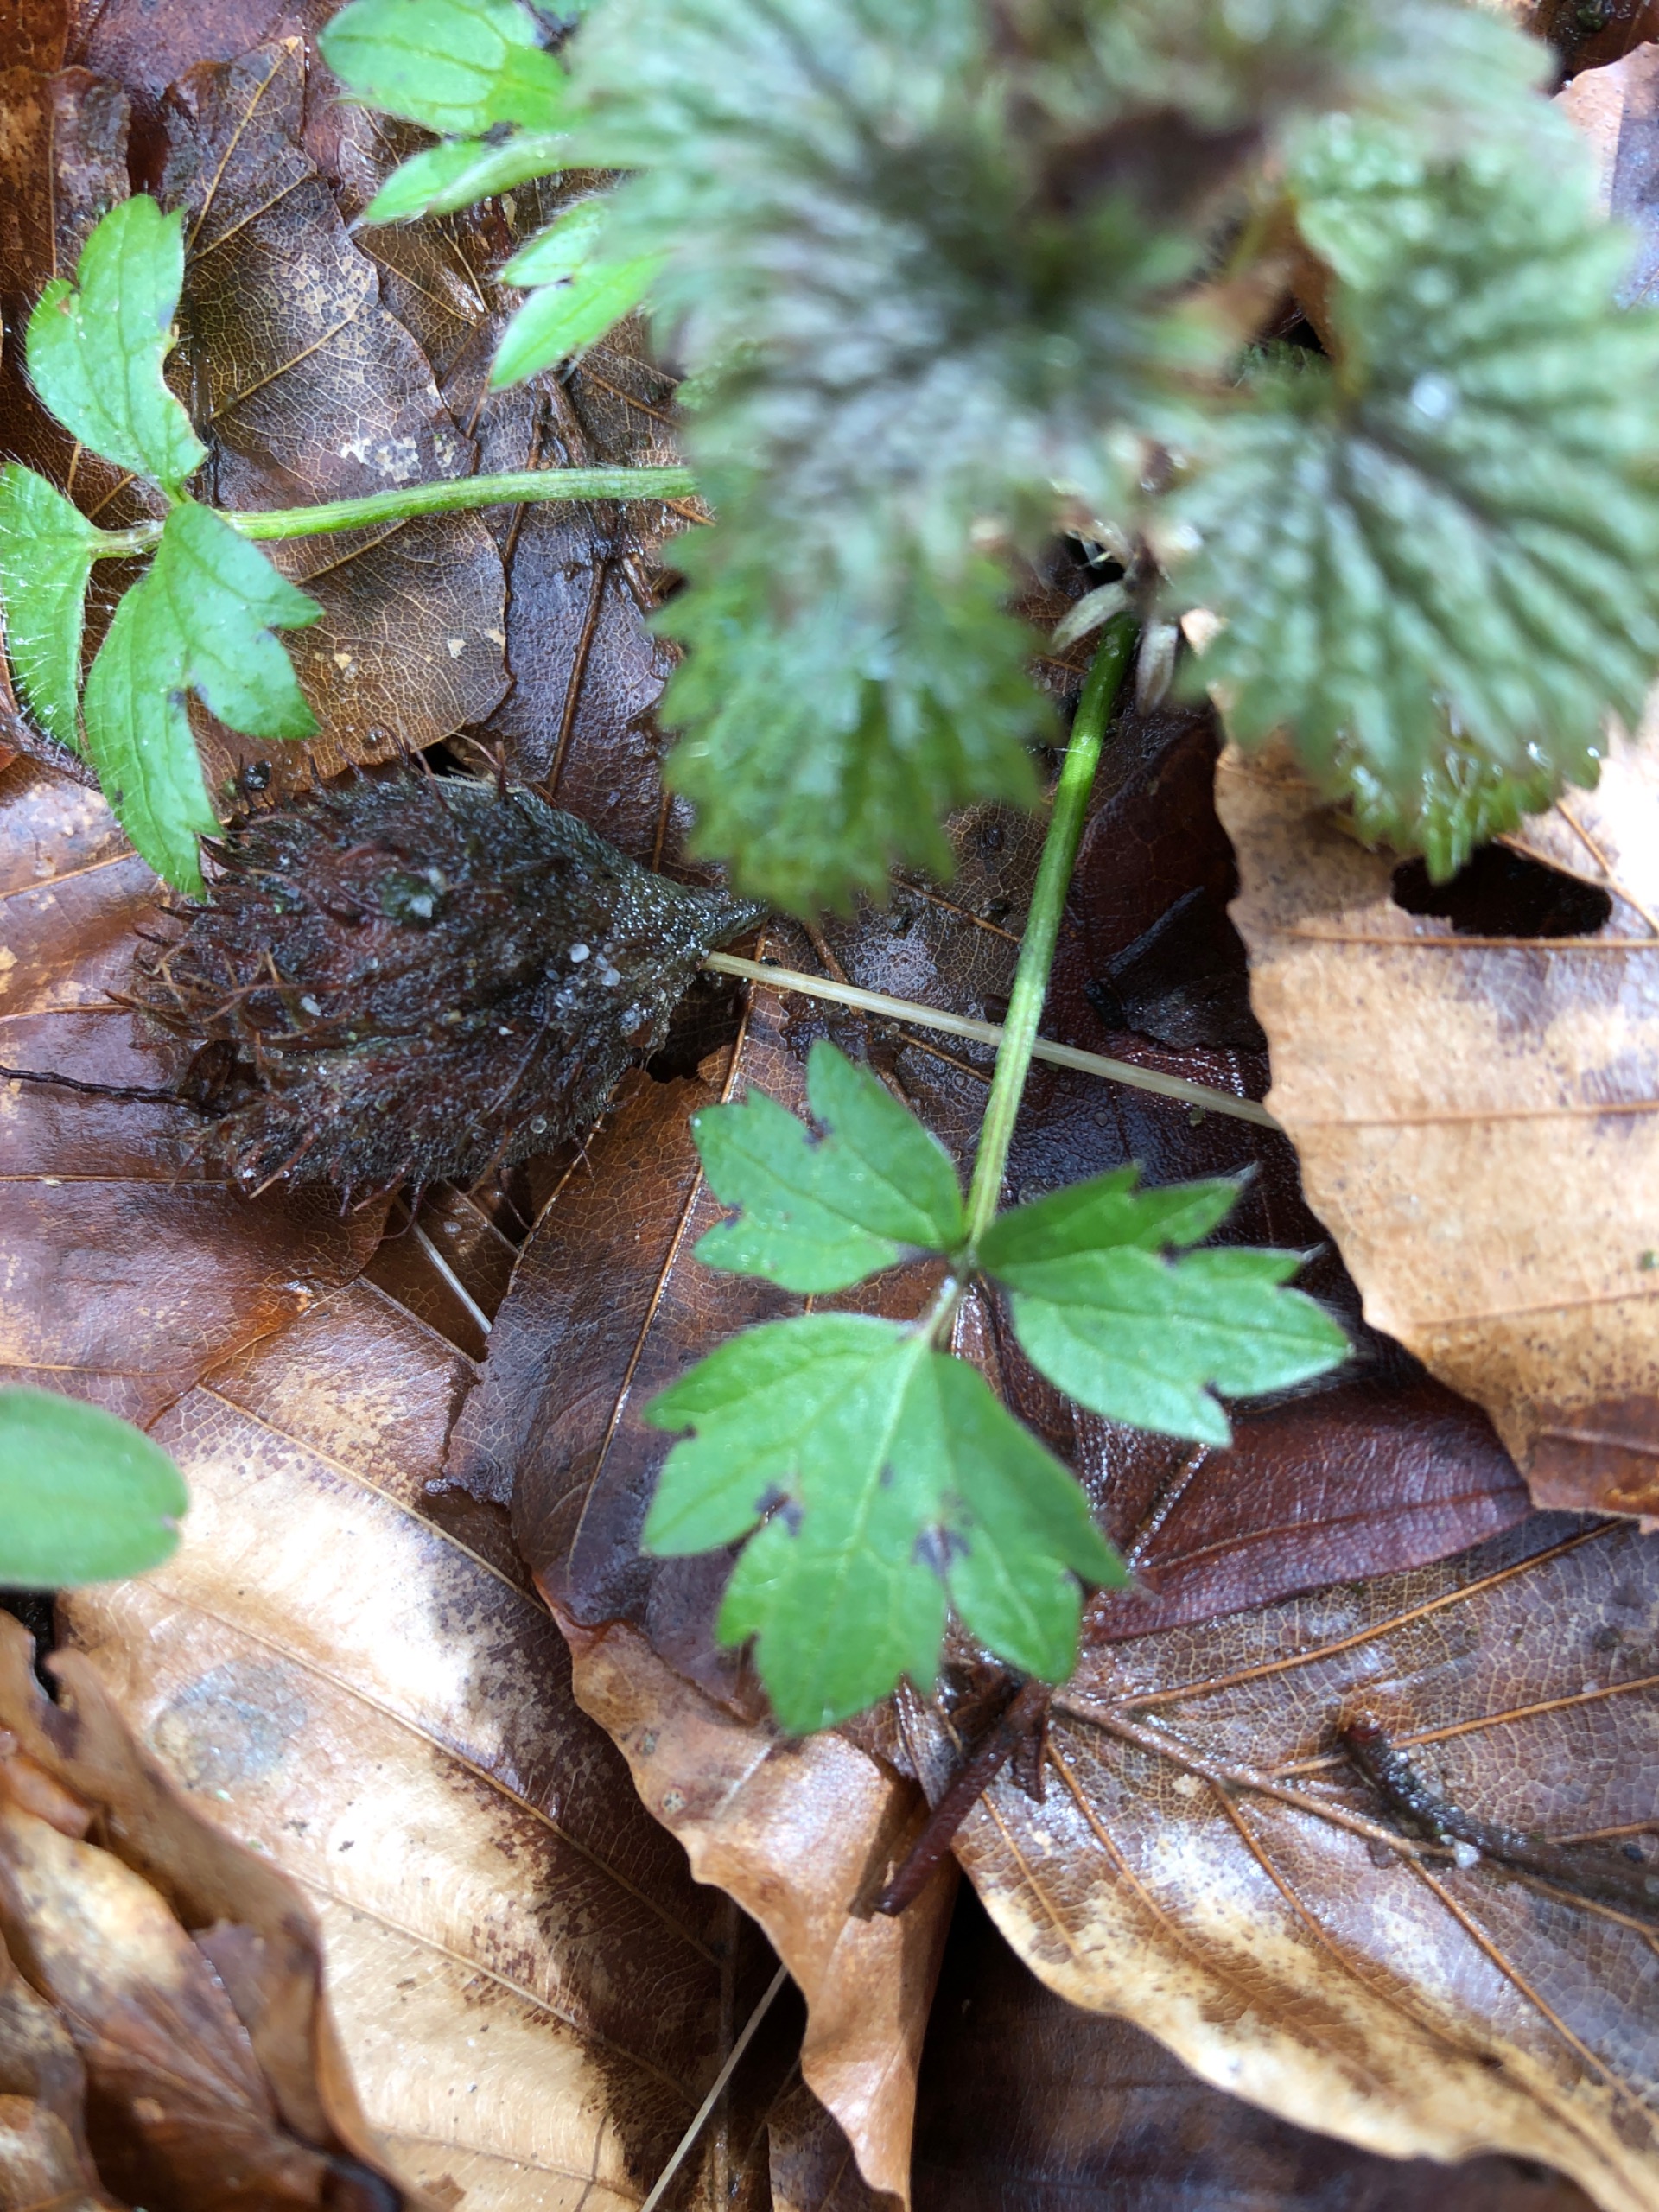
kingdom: Plantae
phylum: Tracheophyta
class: Magnoliopsida
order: Ranunculales
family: Ranunculaceae
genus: Ranunculus
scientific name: Ranunculus repens
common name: Lav ranunkel
